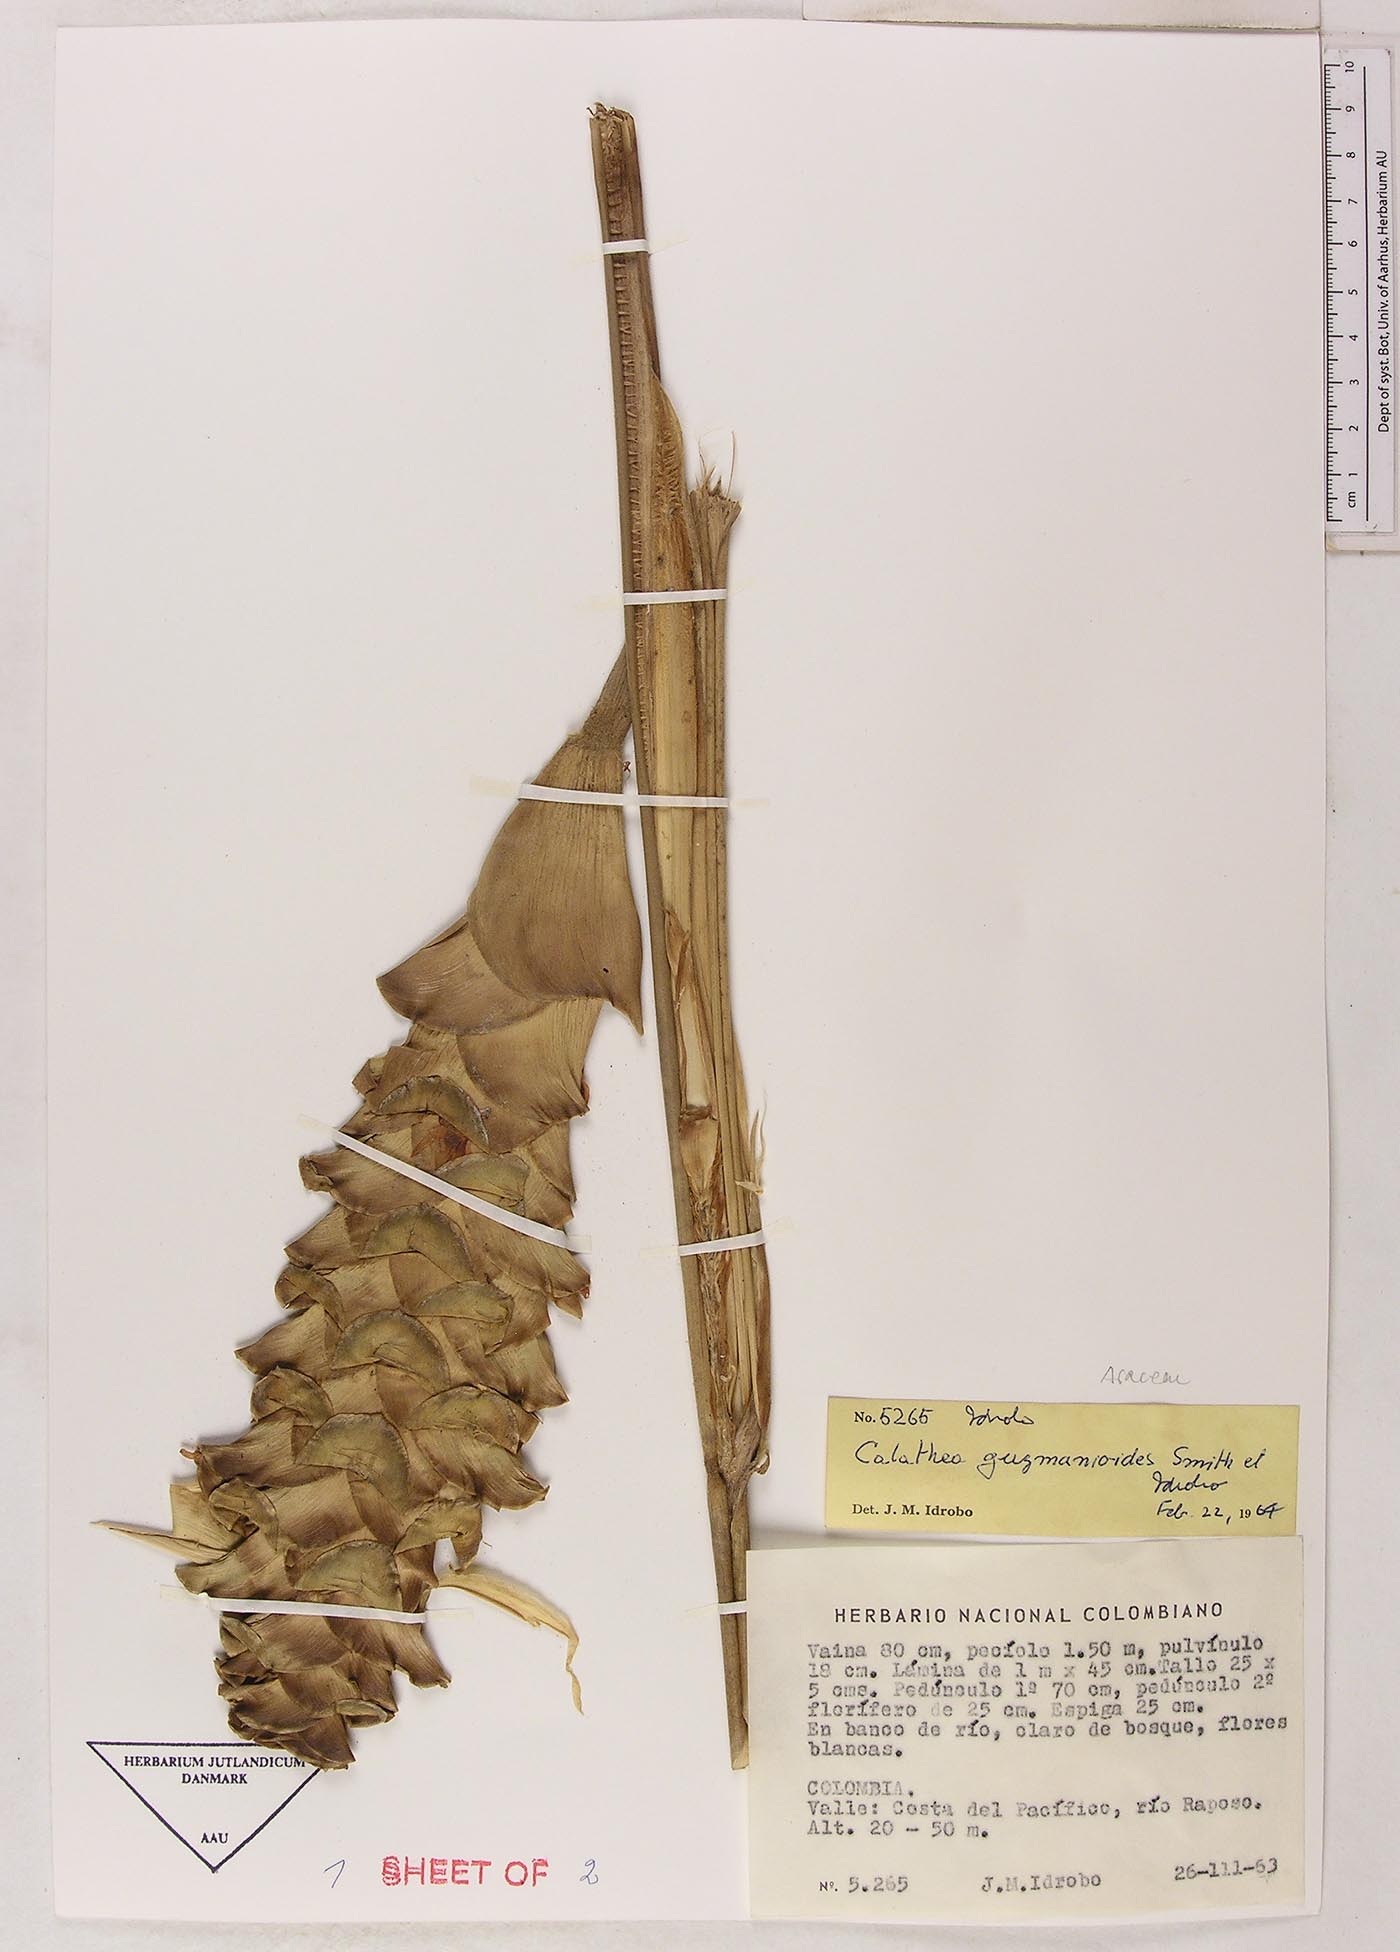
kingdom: Plantae
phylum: Tracheophyta
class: Liliopsida
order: Zingiberales
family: Marantaceae
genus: Calathea
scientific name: Calathea guzmanioides
